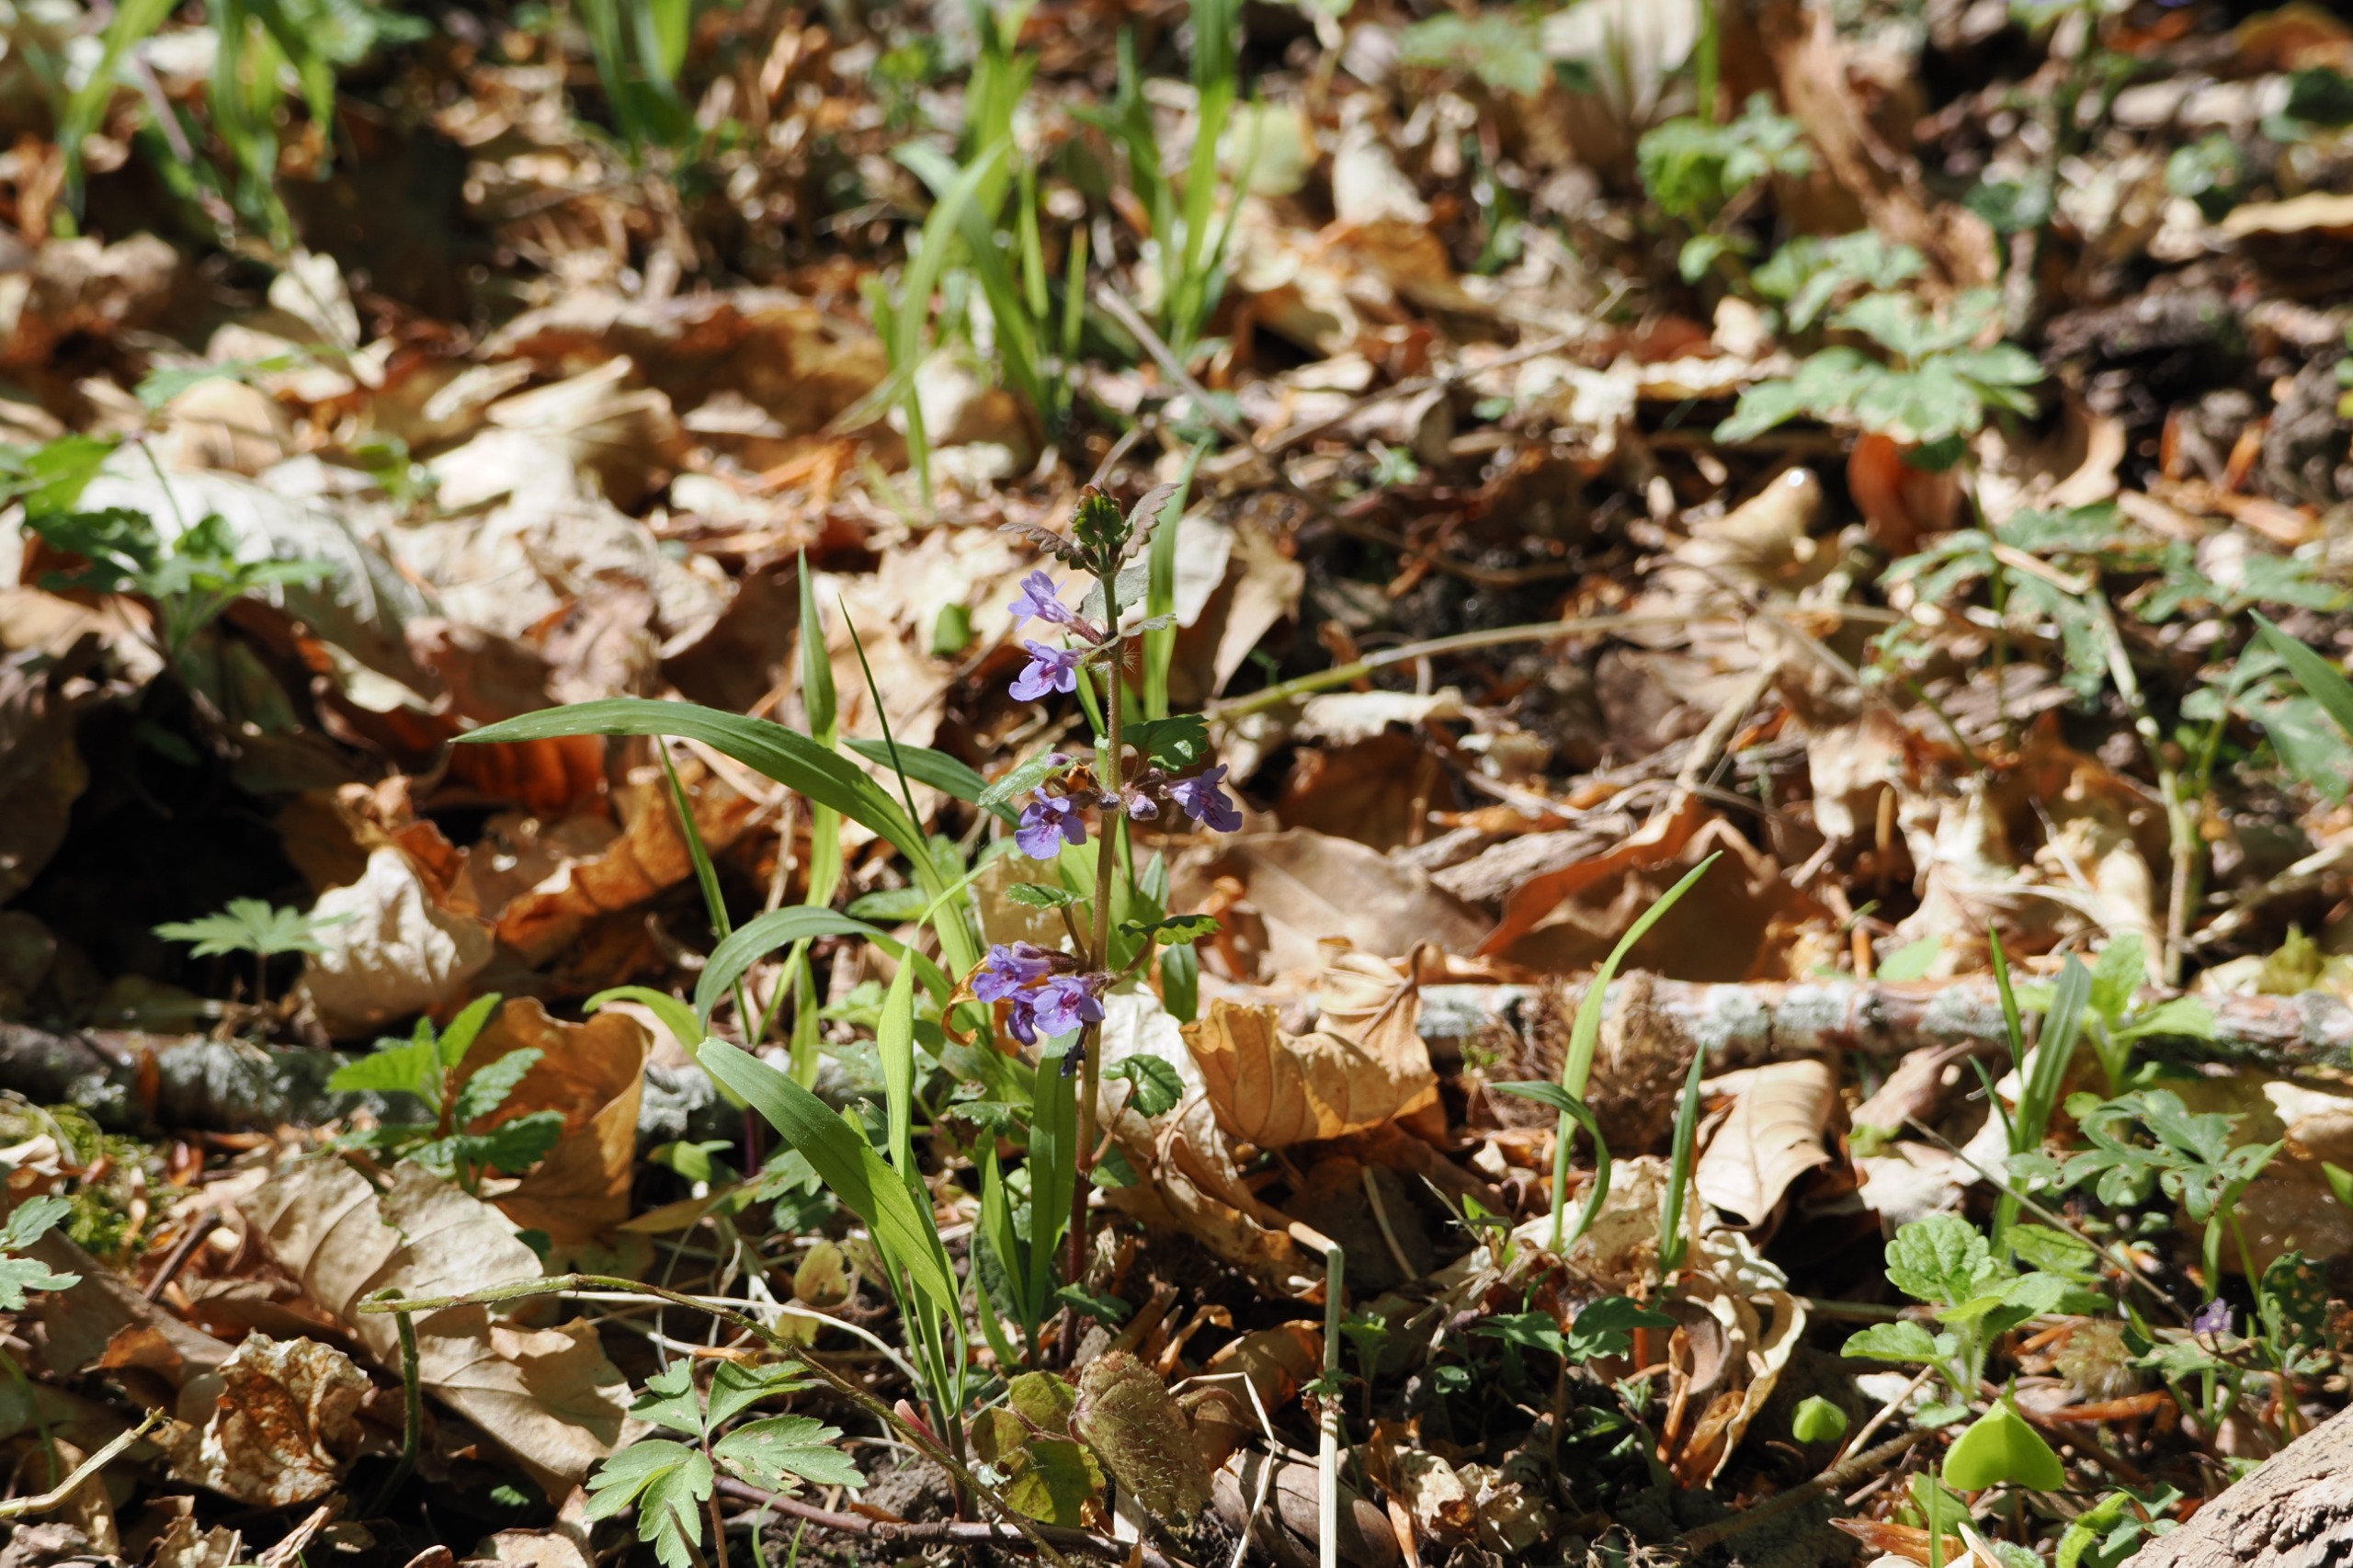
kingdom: Plantae
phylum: Tracheophyta
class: Magnoliopsida
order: Lamiales
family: Lamiaceae
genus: Glechoma
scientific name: Glechoma hederacea
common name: Korsknap
